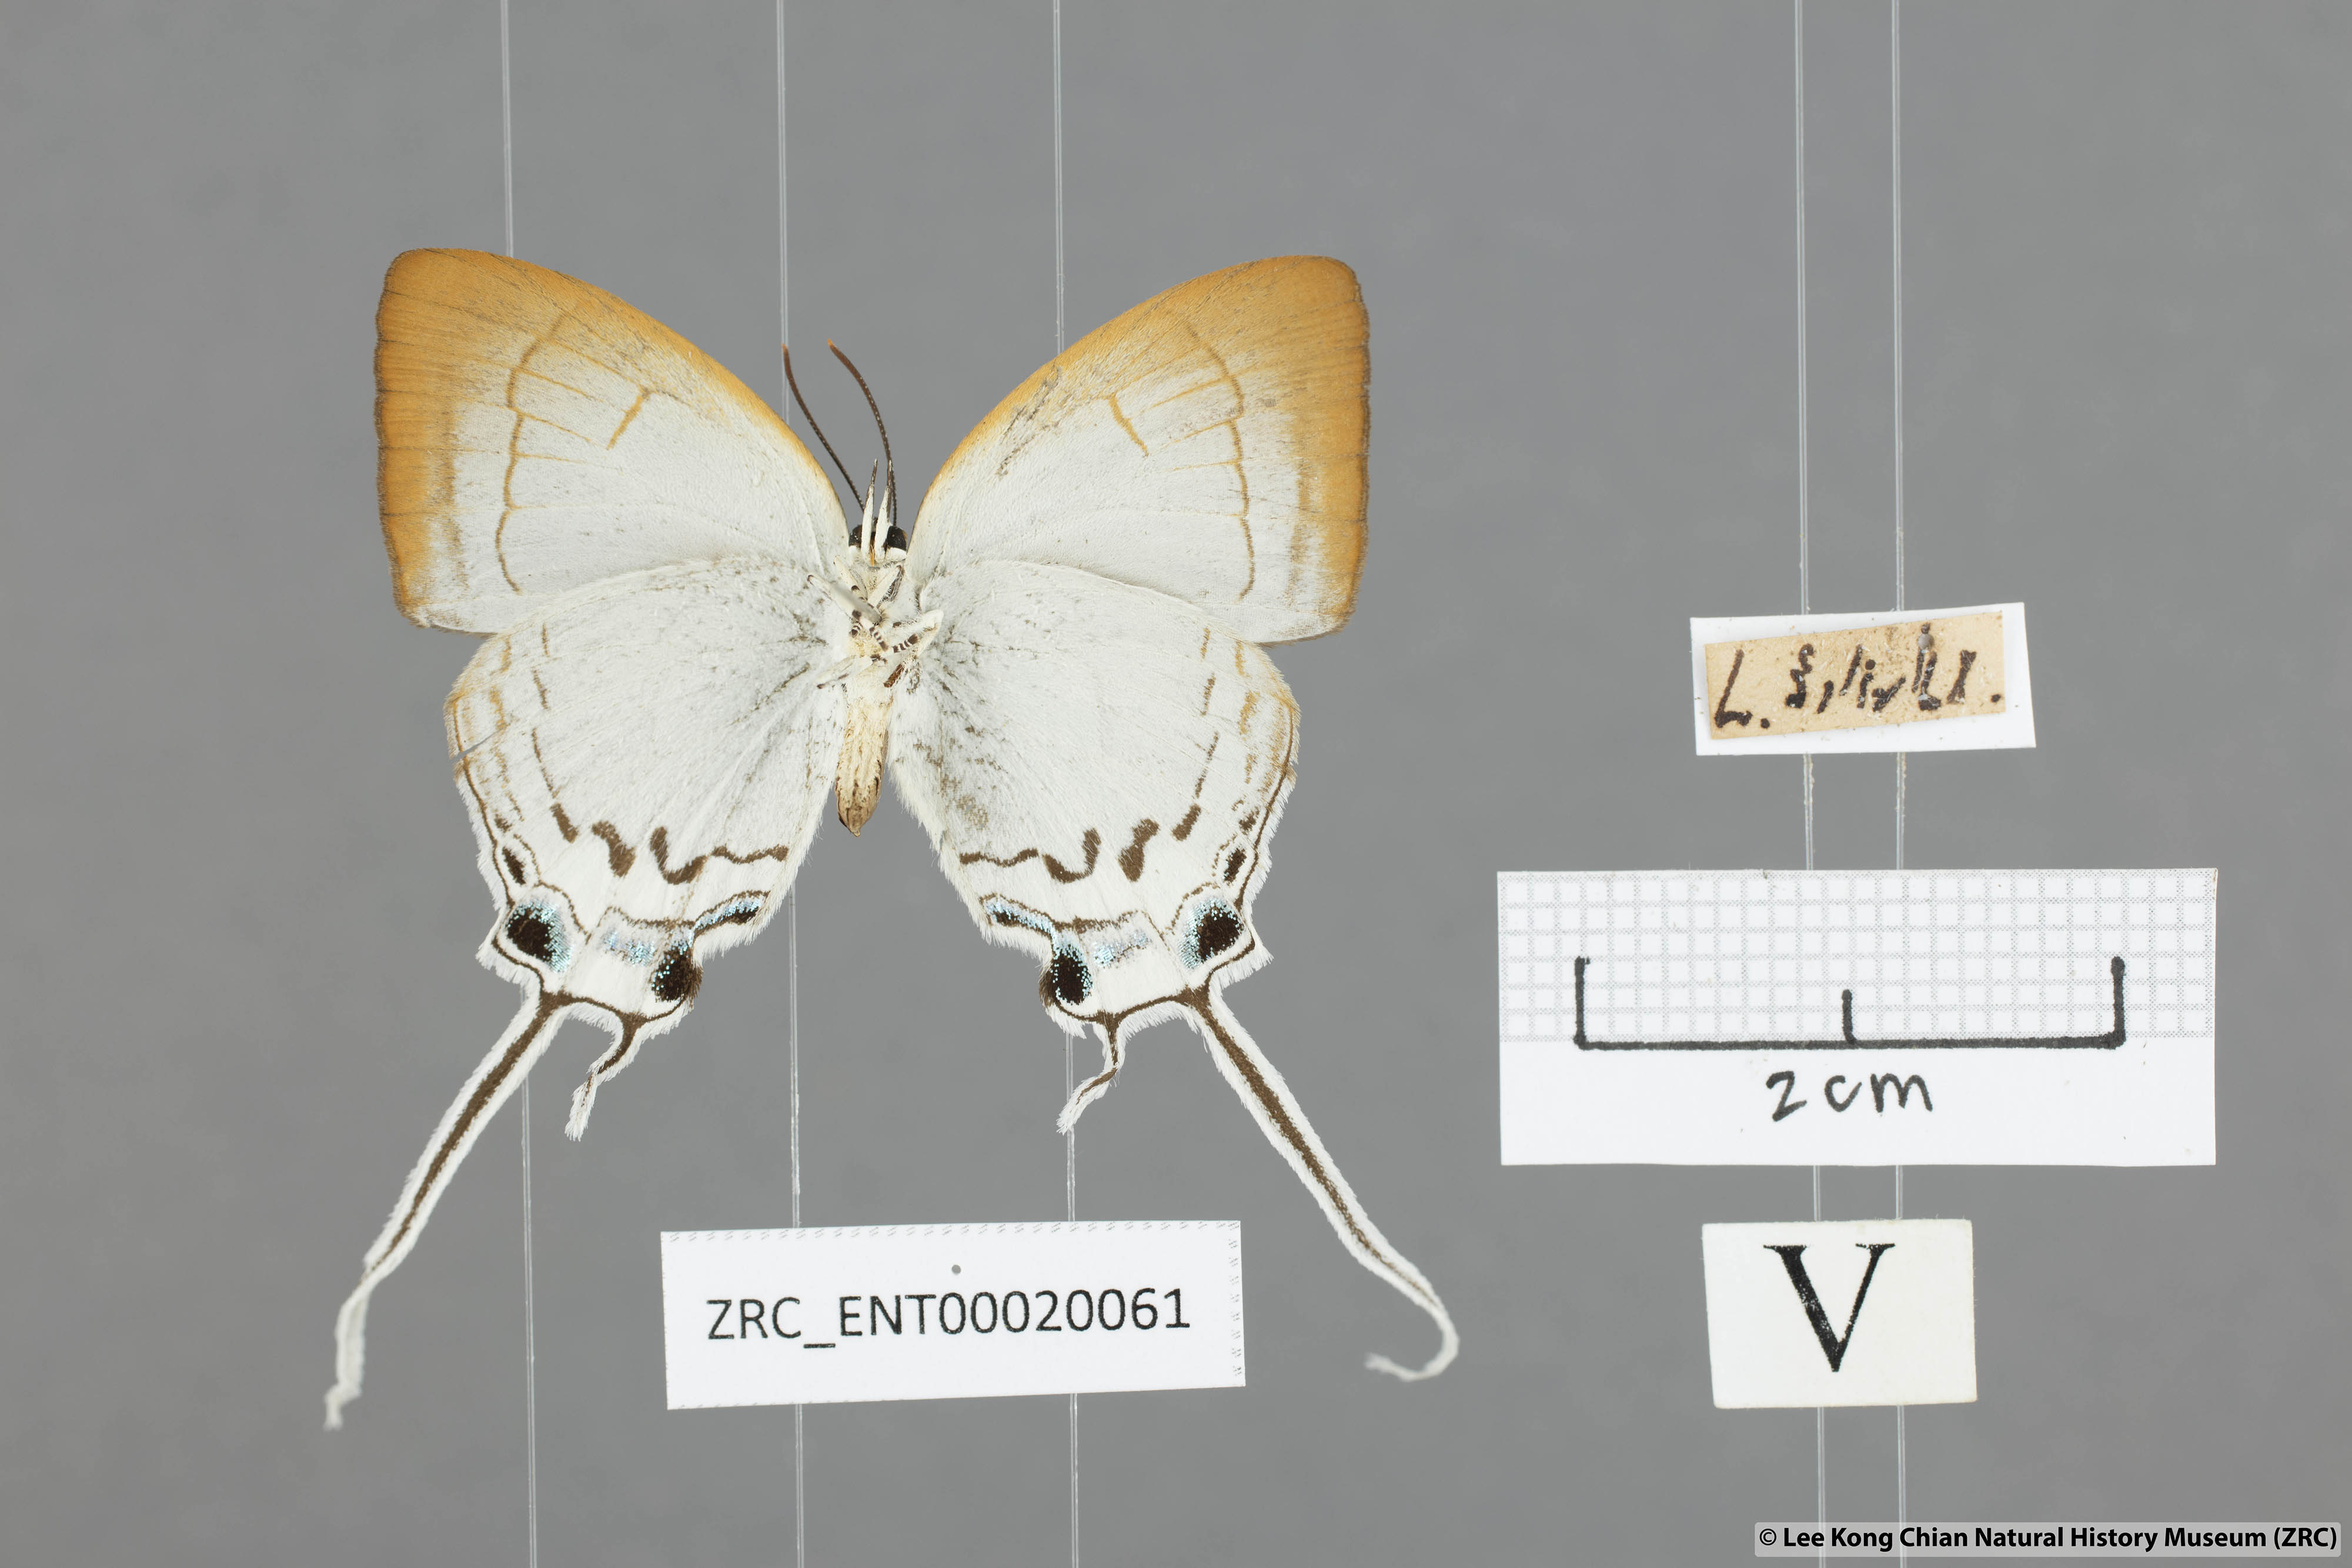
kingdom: Animalia
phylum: Arthropoda
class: Insecta
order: Lepidoptera
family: Lycaenidae
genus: Cheritra
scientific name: Cheritra freja
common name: Common imperial
